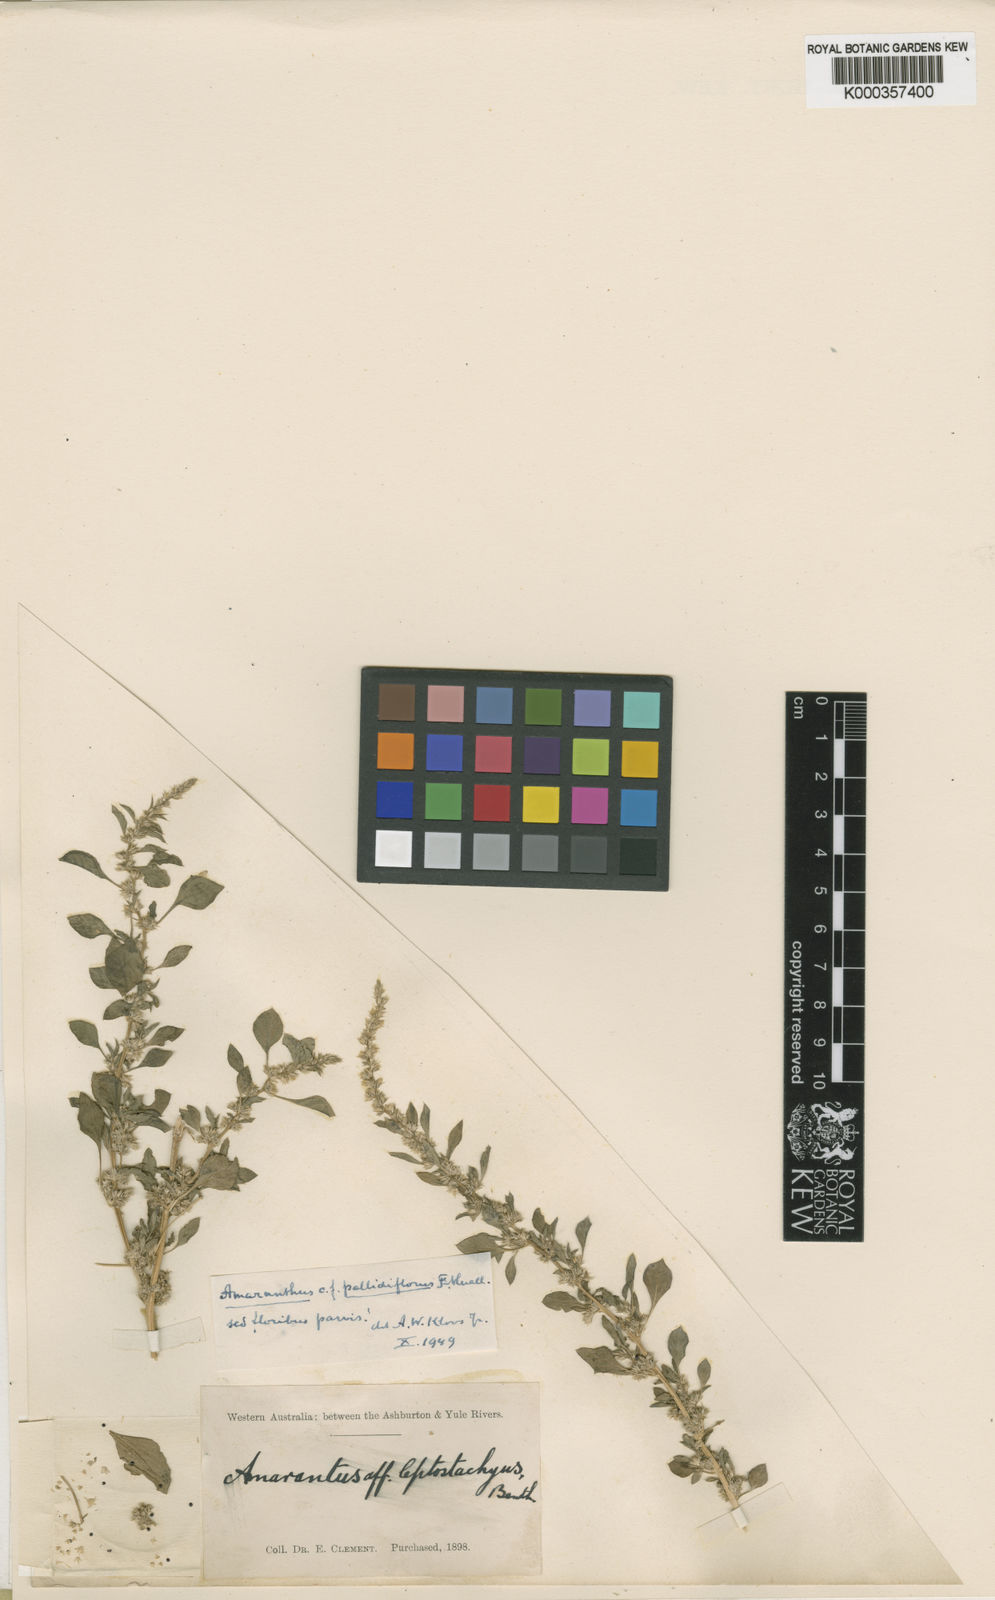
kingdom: Plantae
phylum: Tracheophyta
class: Magnoliopsida
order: Caryophyllales
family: Amaranthaceae
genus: Amaranthus
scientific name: Amaranthus undulatus
